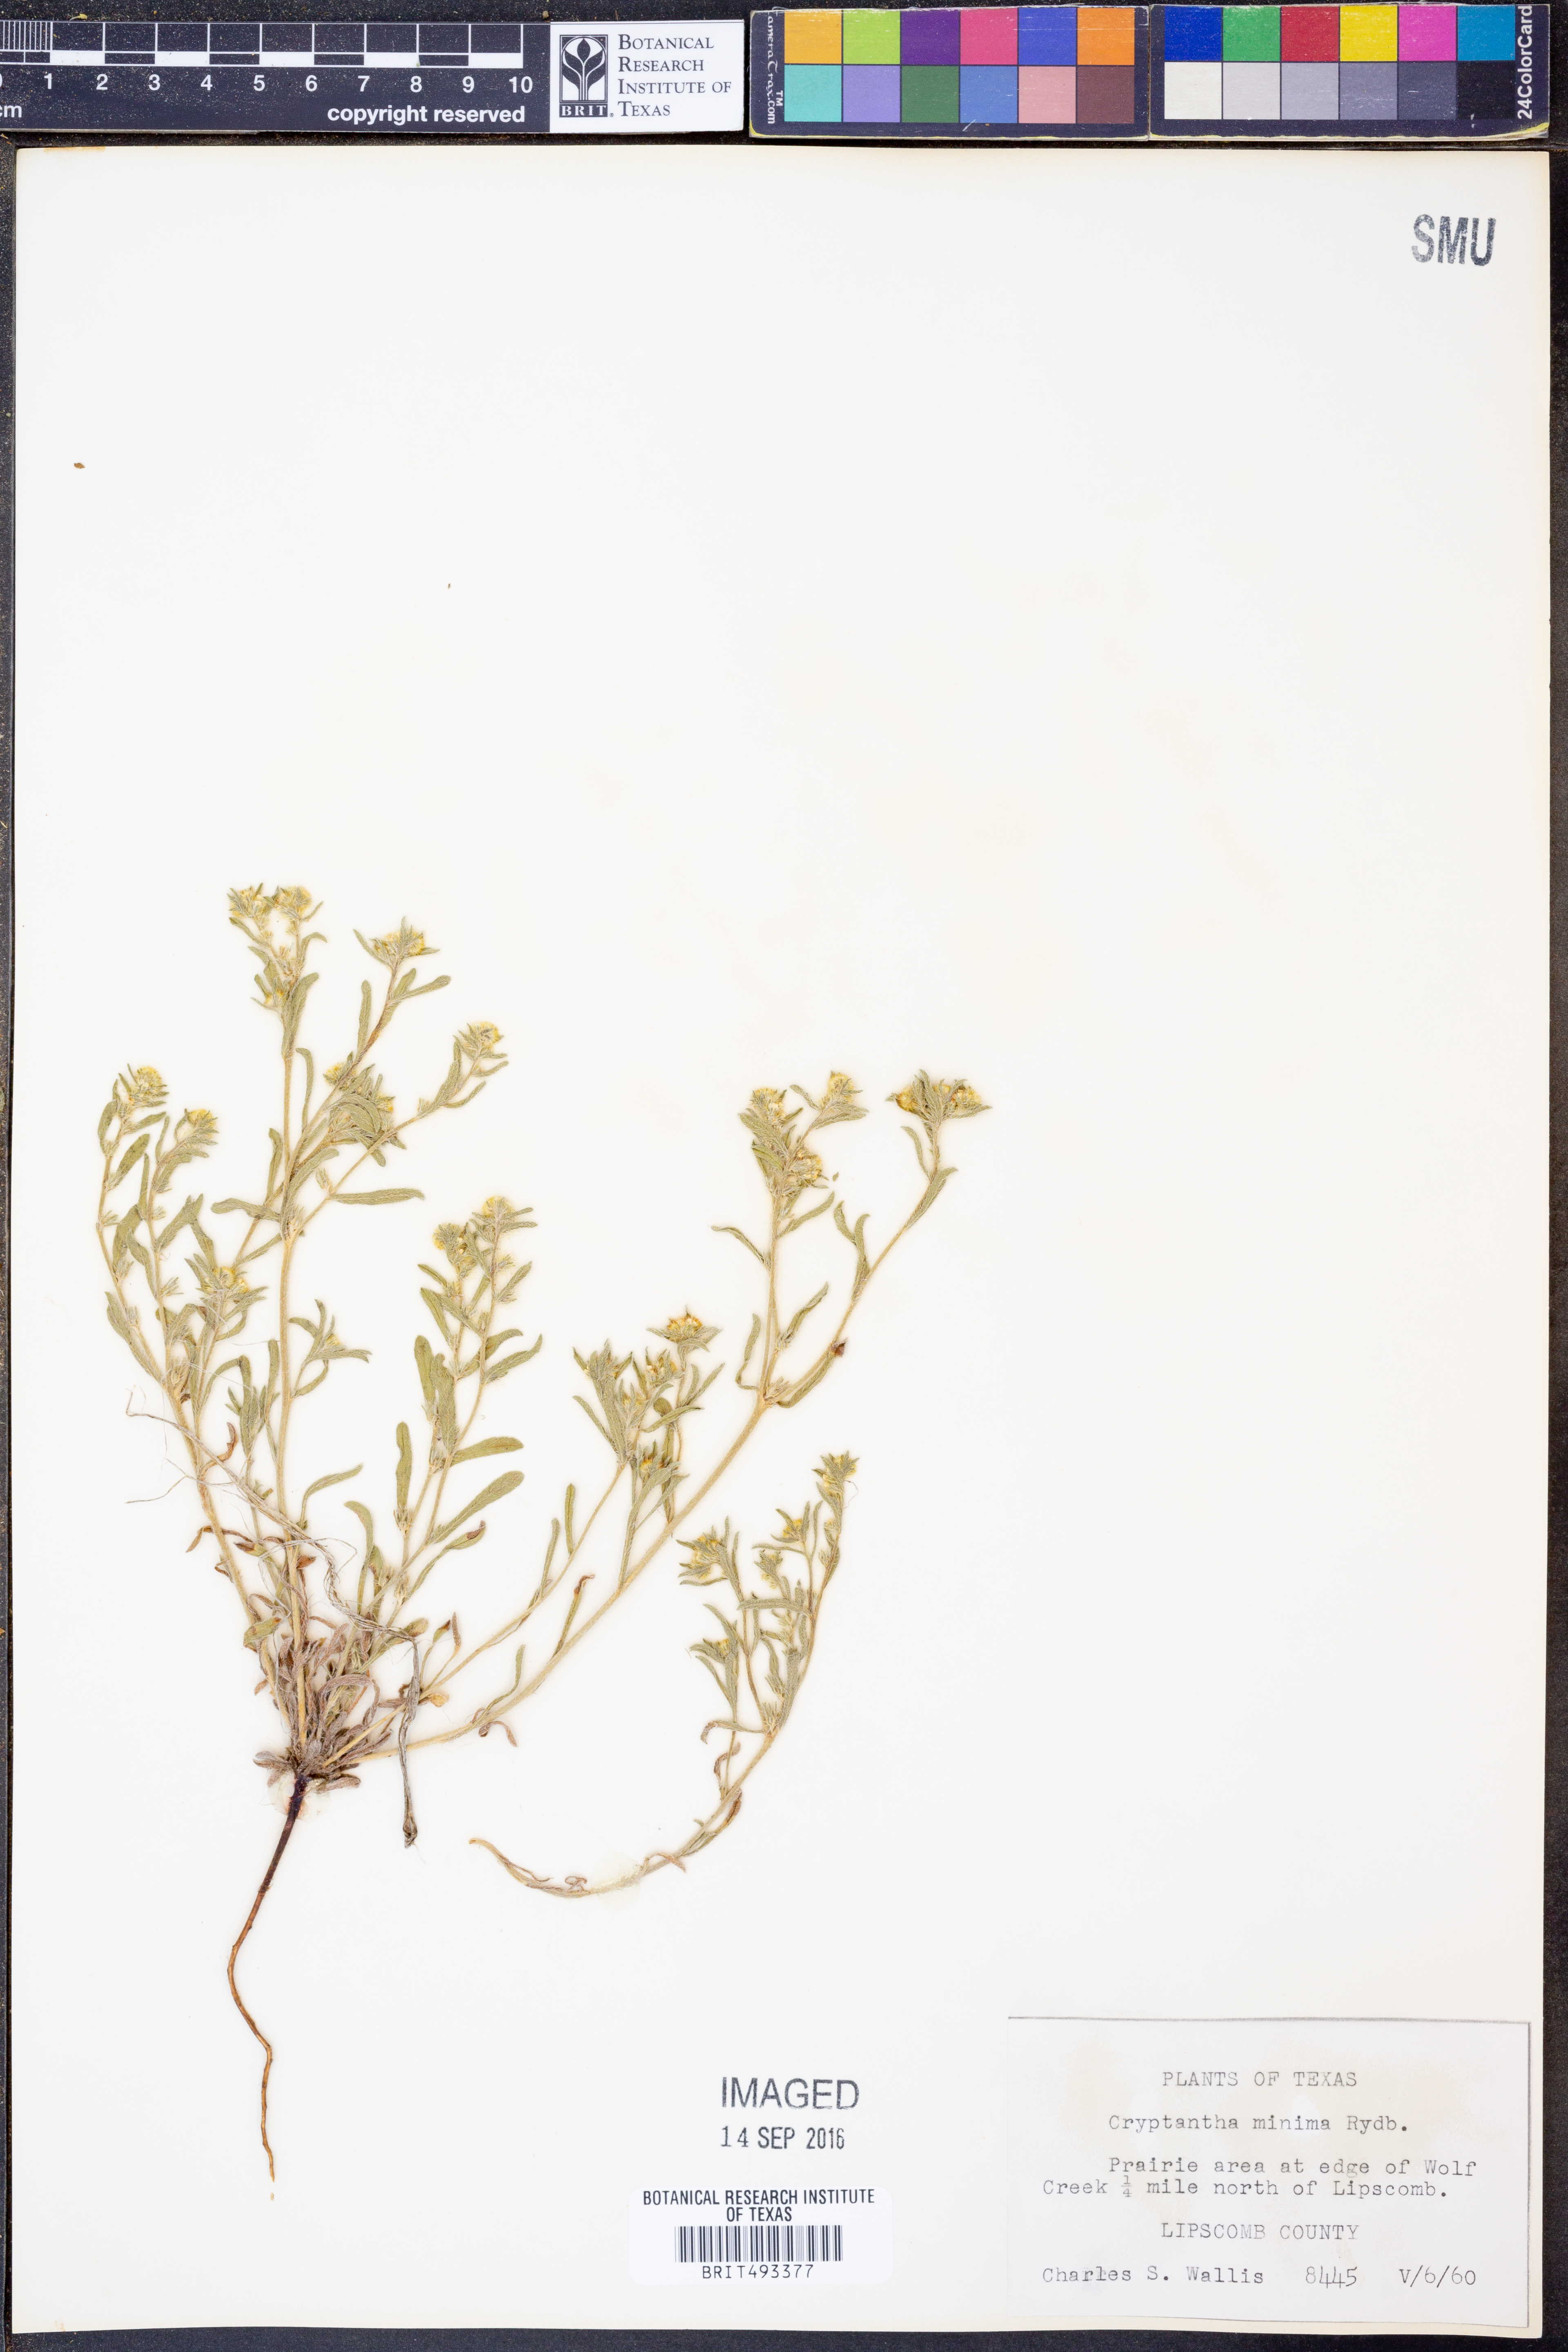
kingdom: Plantae
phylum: Tracheophyta
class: Magnoliopsida
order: Boraginales
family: Boraginaceae
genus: Cryptantha
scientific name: Cryptantha minima
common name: Little cat's-eye
